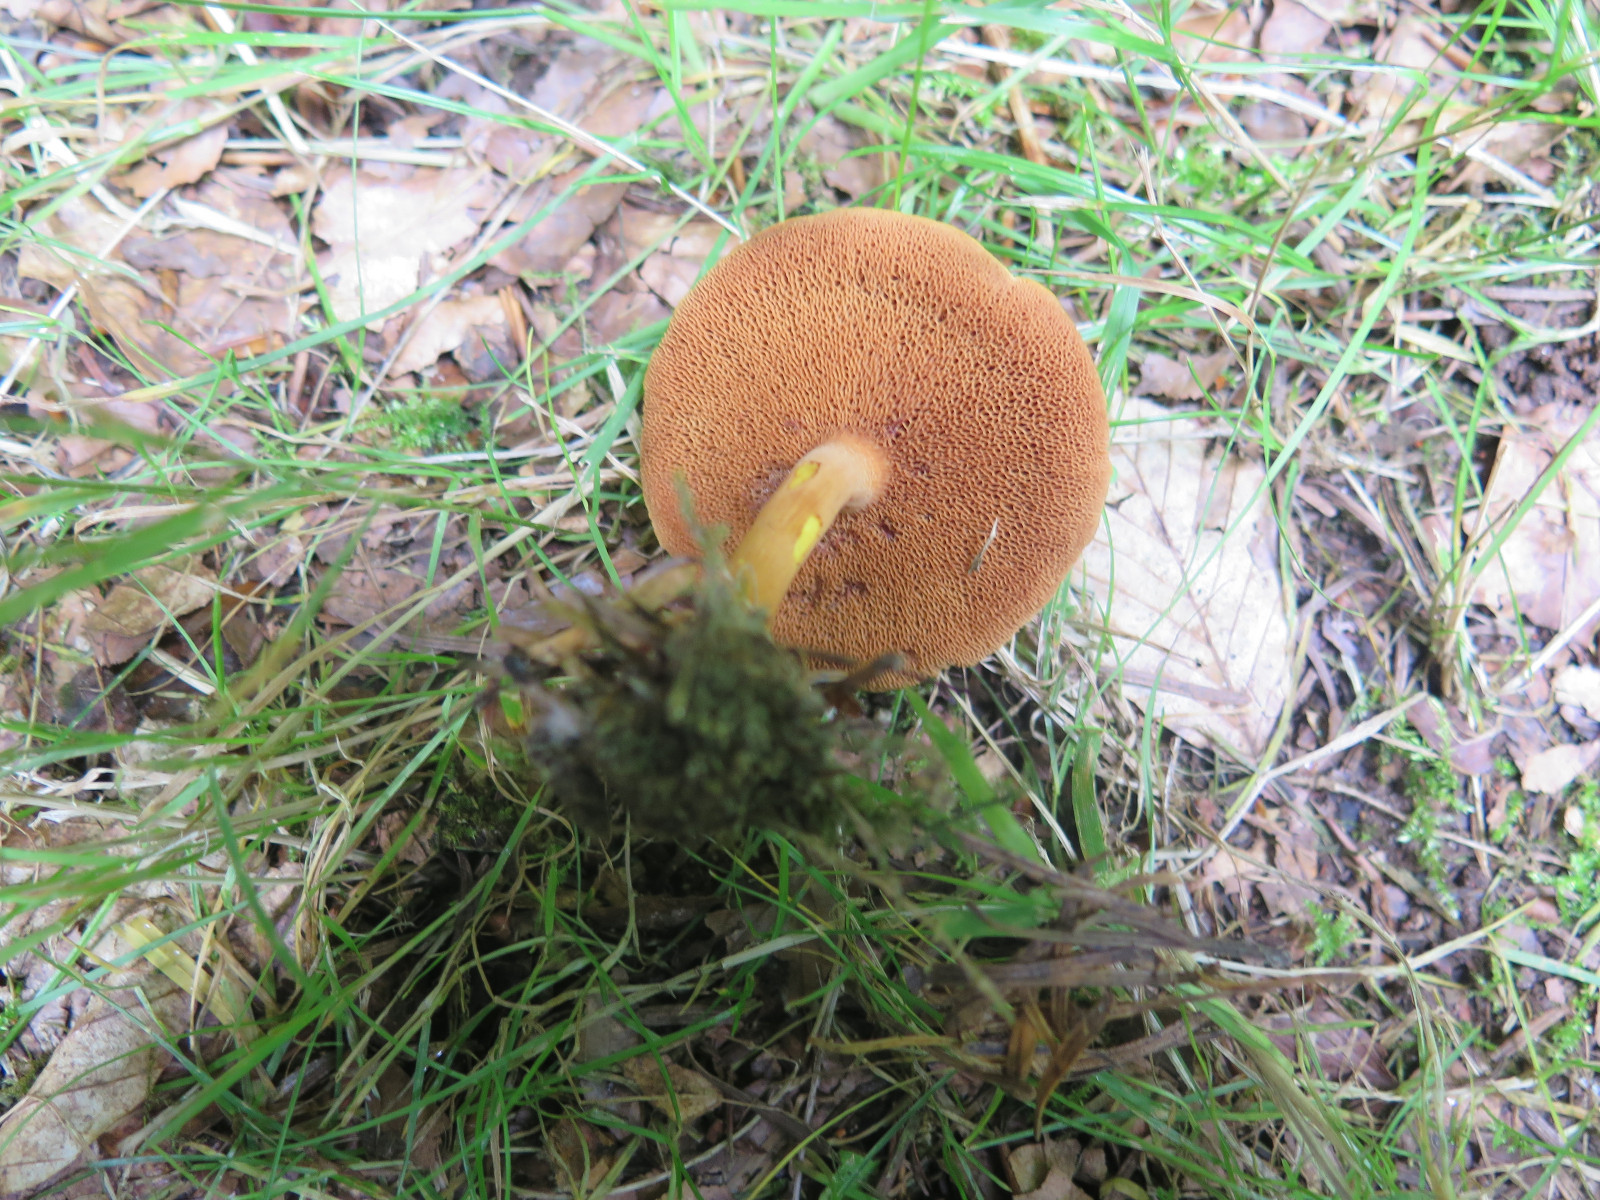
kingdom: Fungi
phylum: Basidiomycota
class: Agaricomycetes
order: Boletales
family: Boletaceae
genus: Chalciporus
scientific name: Chalciporus piperatus
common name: peberrørhat
